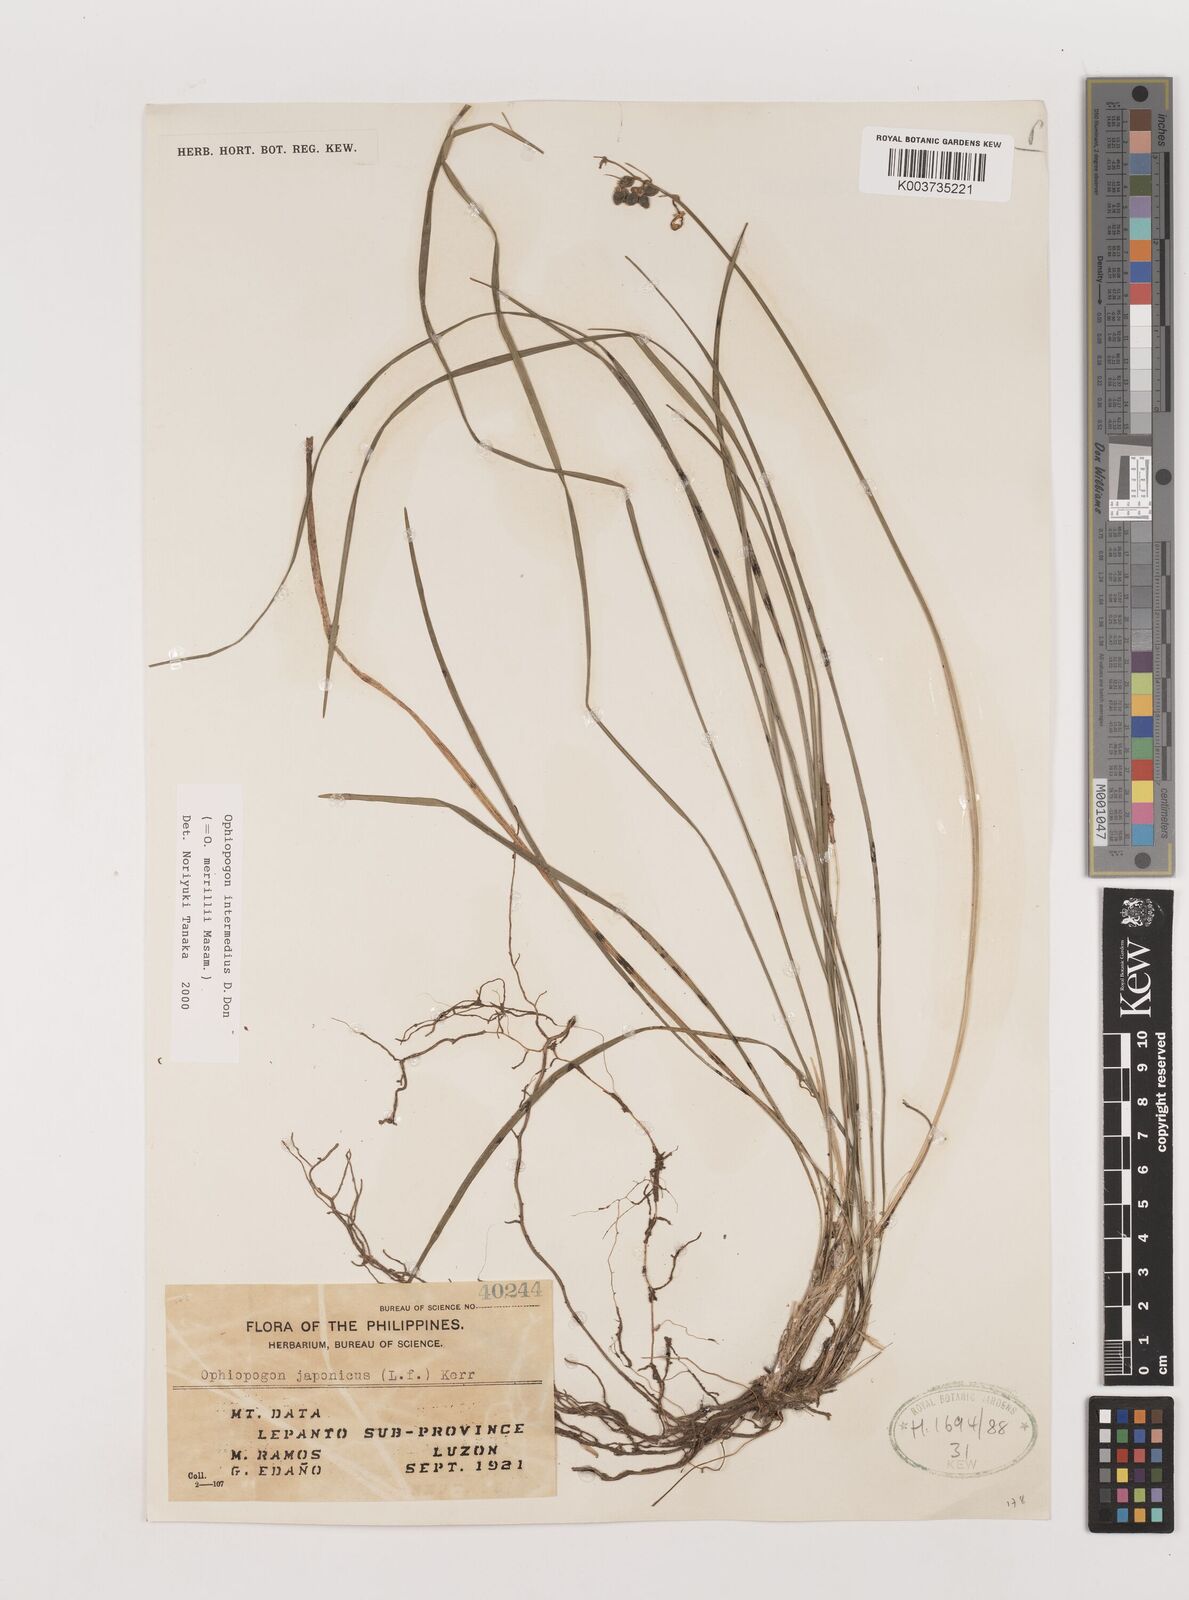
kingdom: Plantae
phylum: Tracheophyta
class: Liliopsida
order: Asparagales
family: Asparagaceae
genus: Ophiopogon
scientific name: Ophiopogon intermedius
